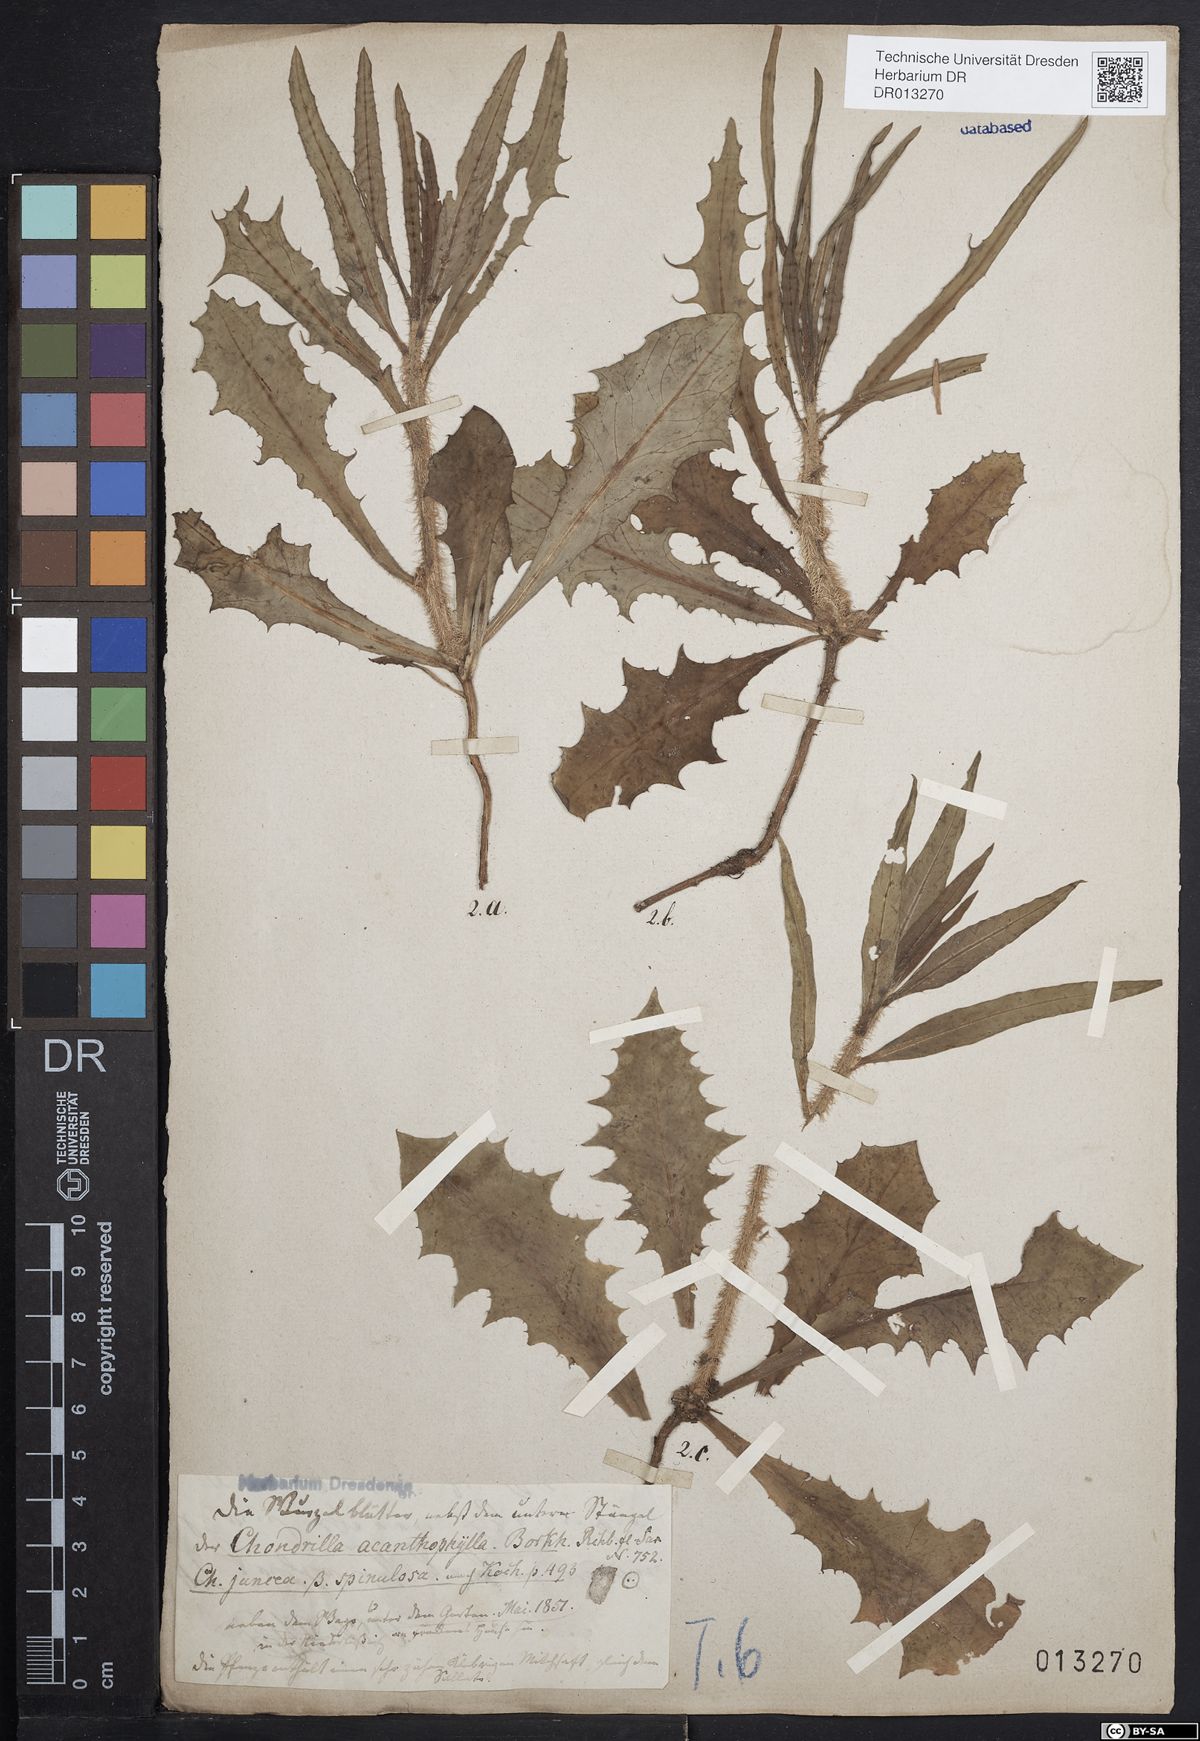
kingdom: Plantae
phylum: Tracheophyta
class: Magnoliopsida
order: Asterales
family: Asteraceae
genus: Chondrilla
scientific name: Chondrilla juncea
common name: Skeleton weed
